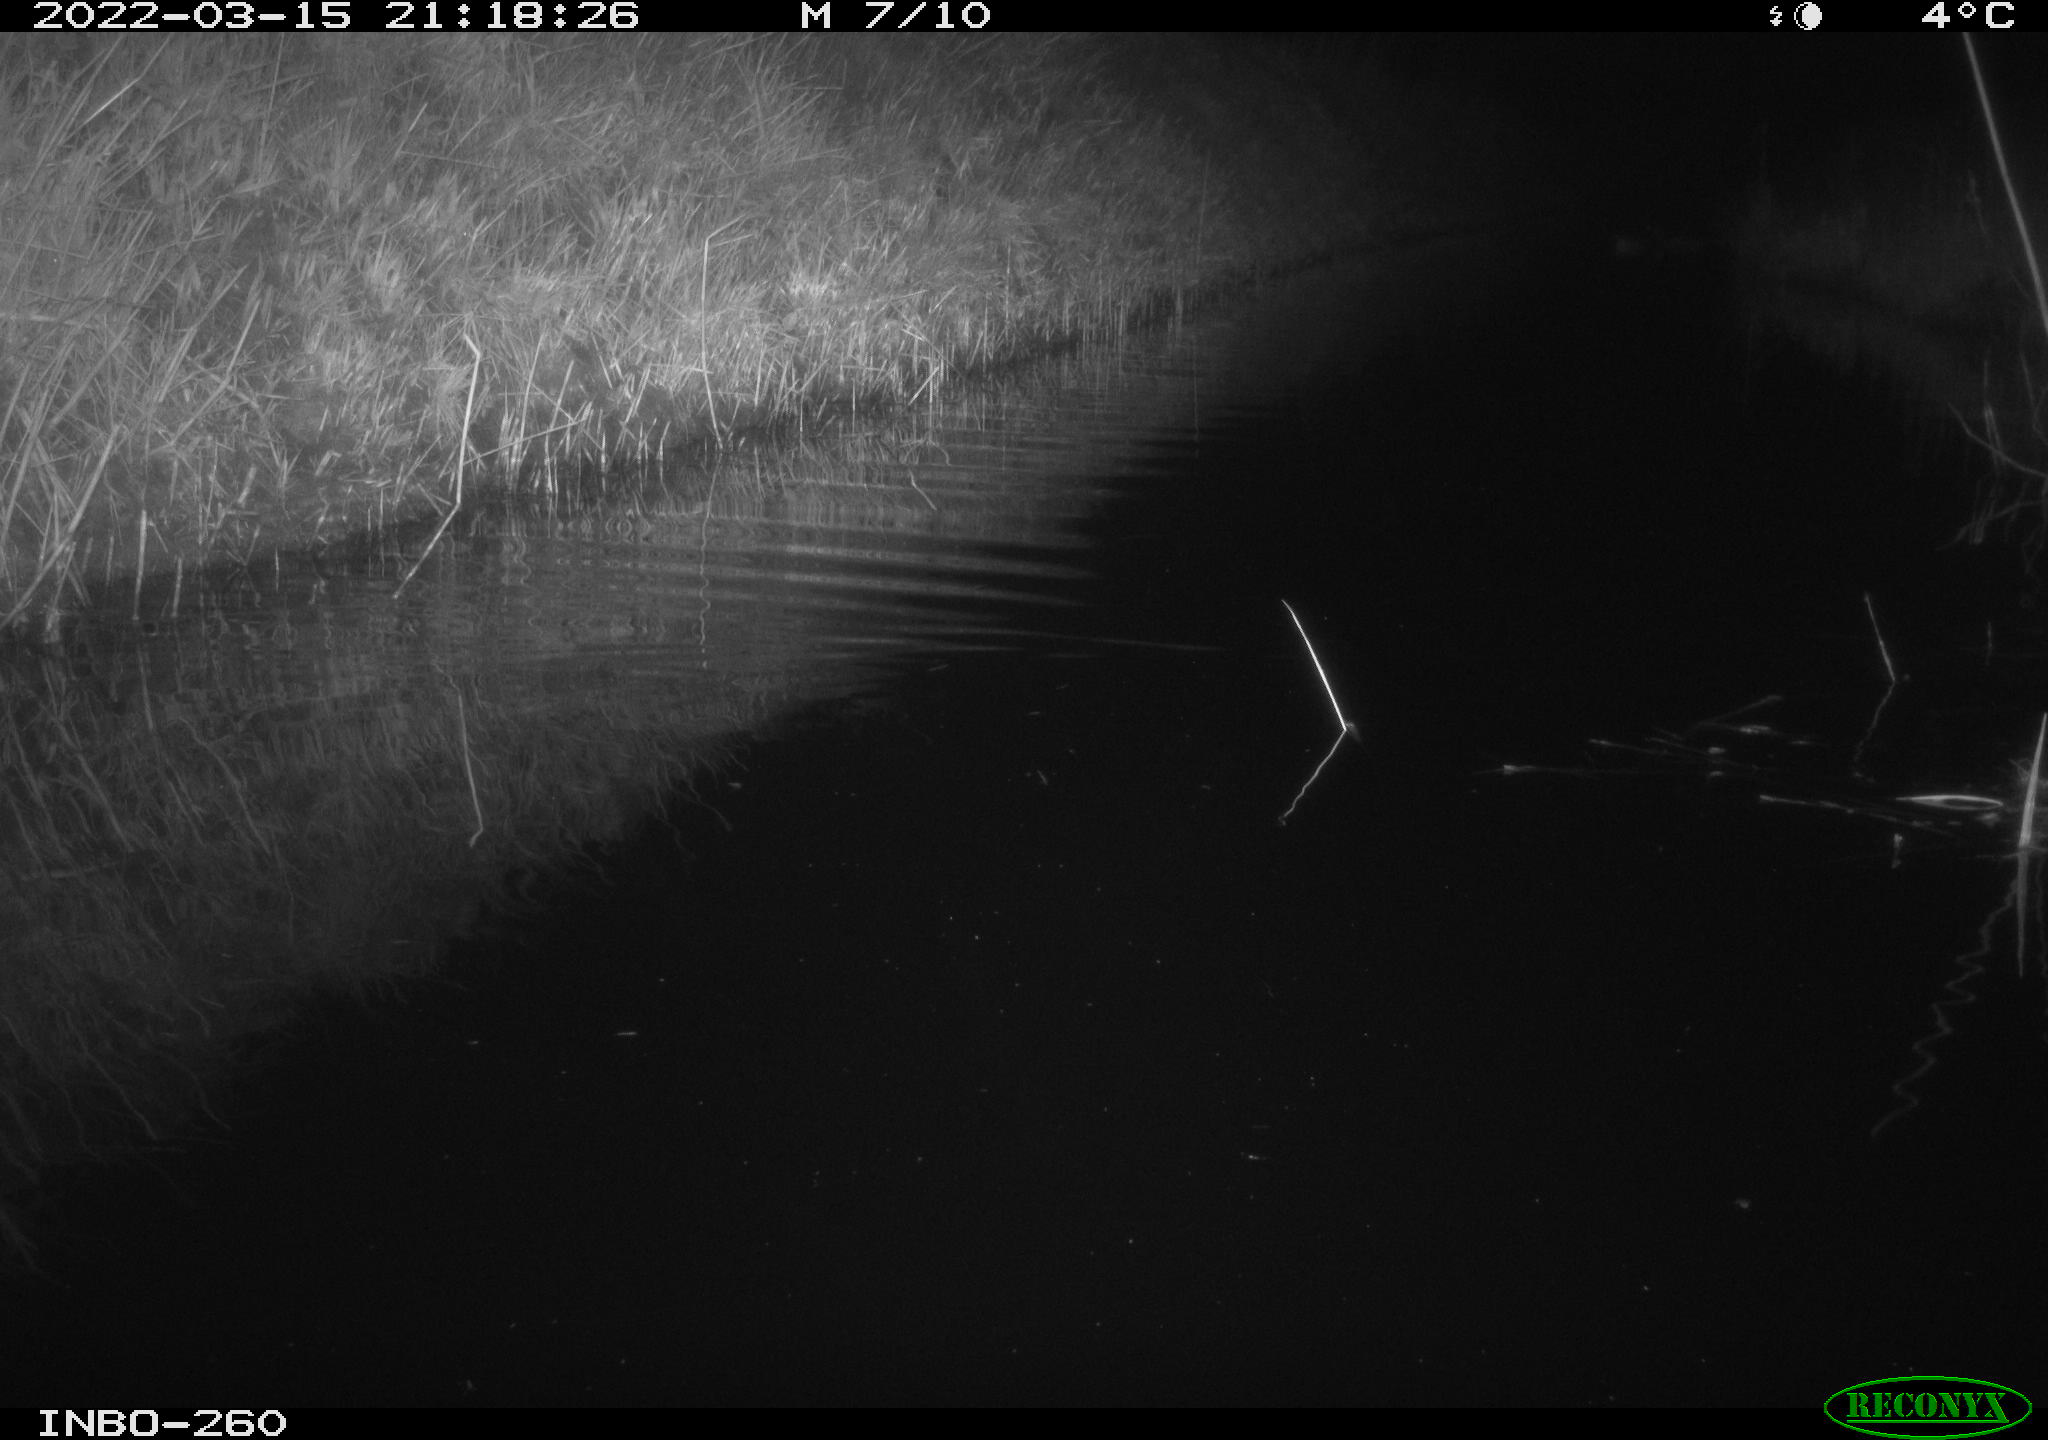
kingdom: Animalia
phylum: Chordata
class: Mammalia
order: Rodentia
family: Muridae
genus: Rattus
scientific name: Rattus norvegicus
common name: Brown rat
